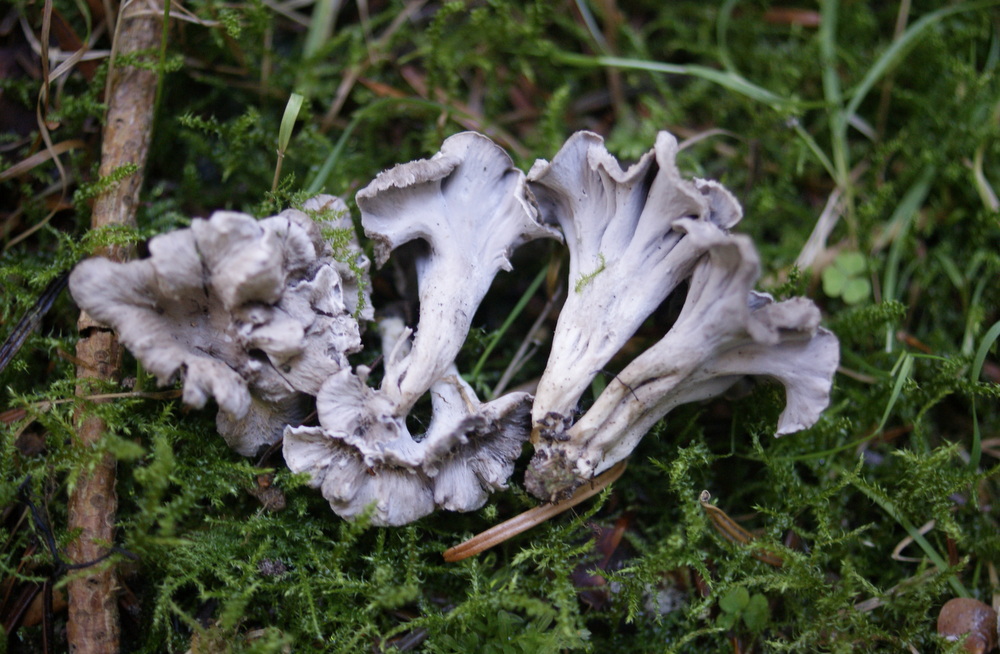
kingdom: Fungi
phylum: Basidiomycota
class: Agaricomycetes
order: Cantharellales
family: Hydnaceae
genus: Craterellus
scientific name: Craterellus undulatus
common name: liden kantarel
